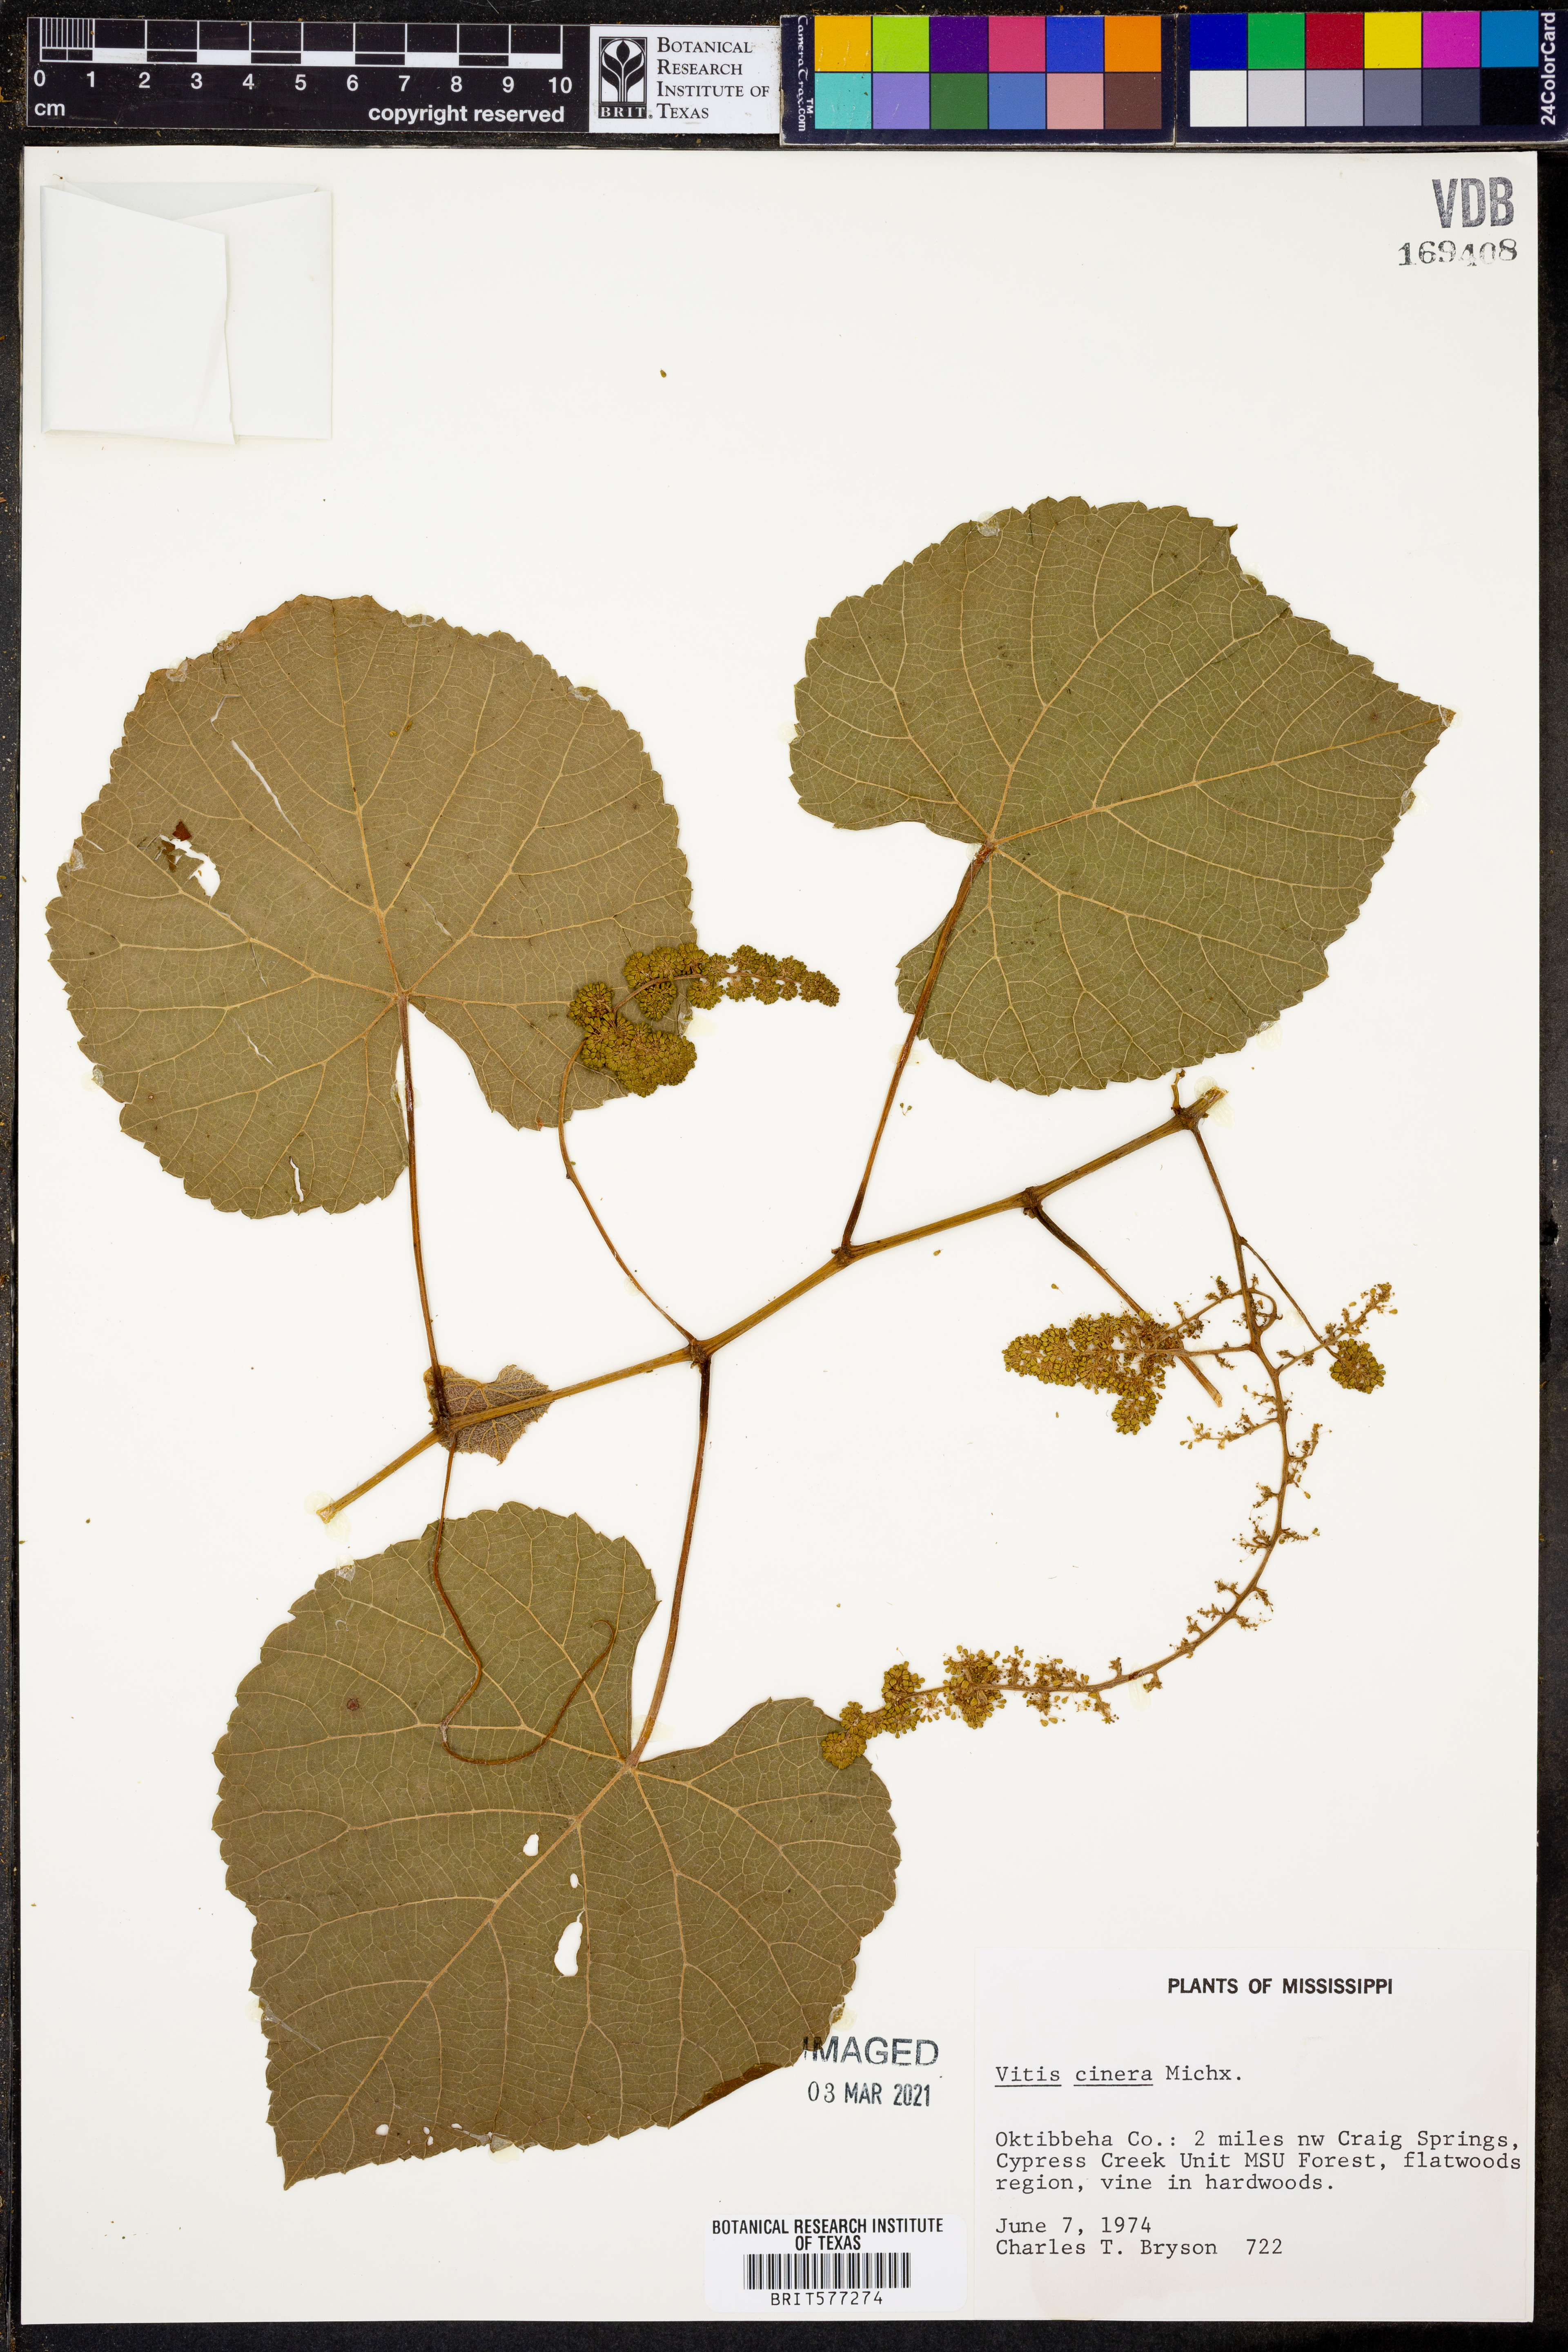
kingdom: Plantae
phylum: Tracheophyta
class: Magnoliopsida
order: Vitales
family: Vitaceae
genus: Vitis
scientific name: Vitis cinerea
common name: Ashy grape
